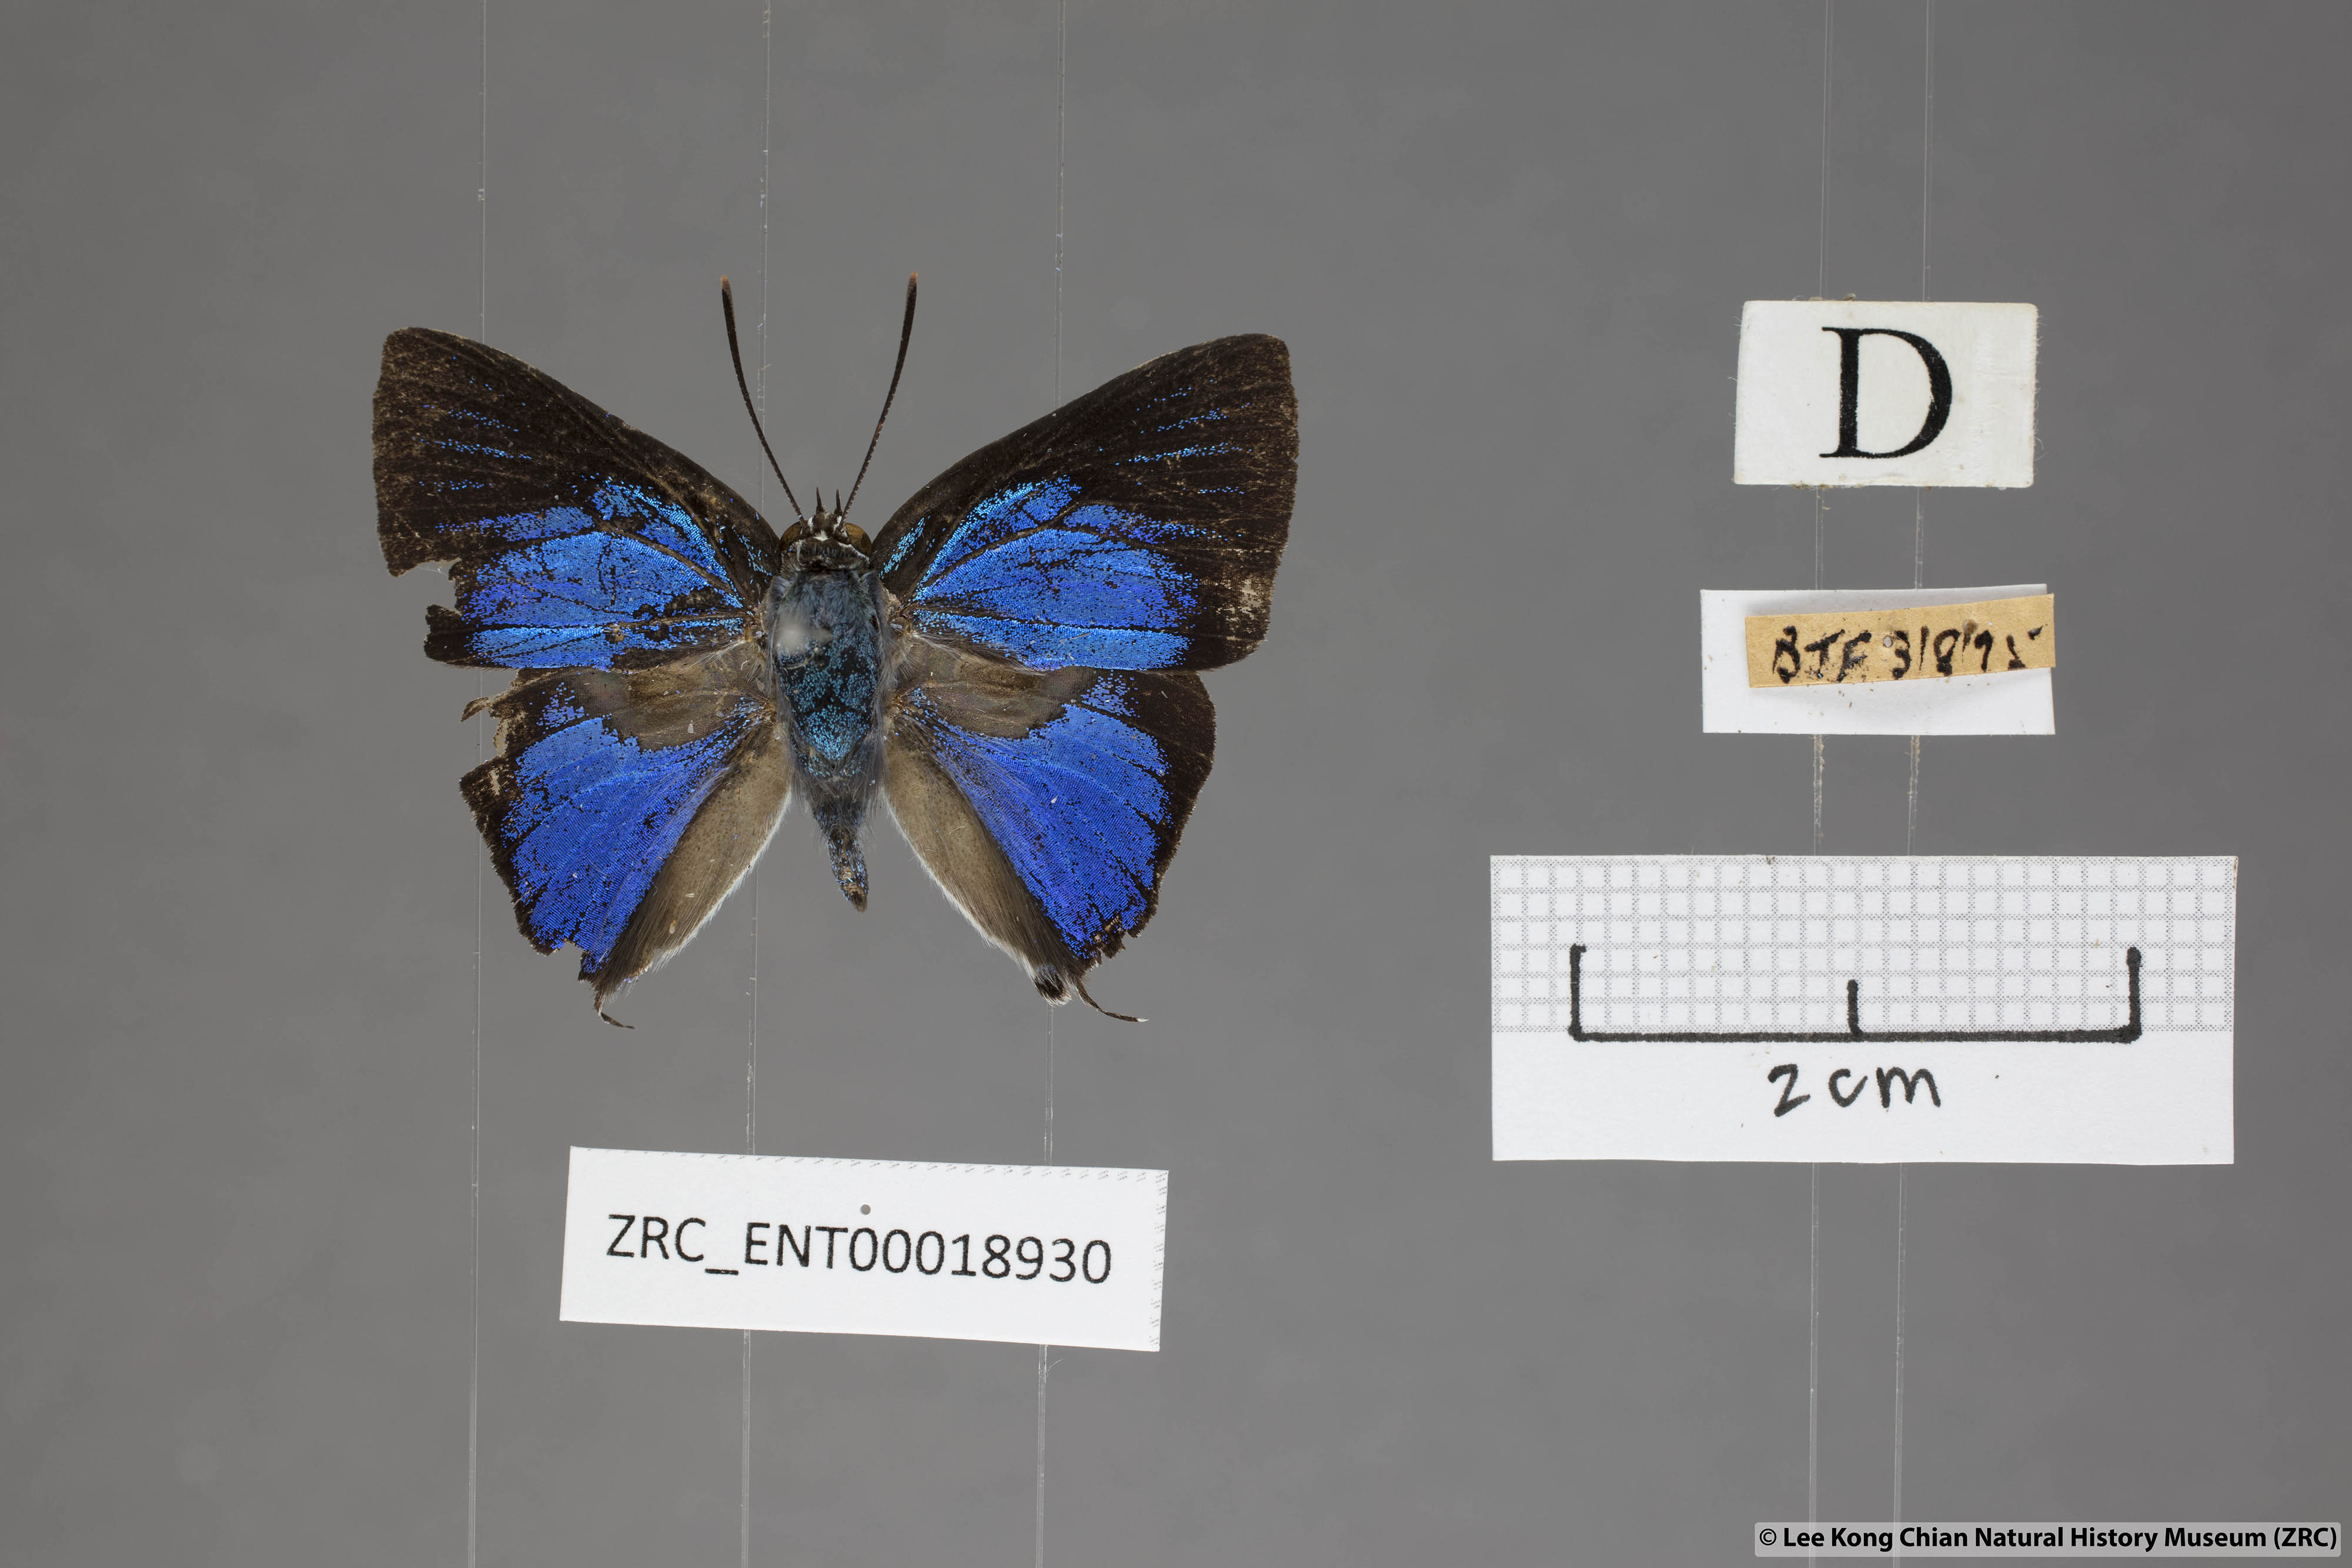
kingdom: Animalia
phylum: Arthropoda
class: Insecta
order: Lepidoptera
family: Lycaenidae
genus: Ancema
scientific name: Ancema blanka
